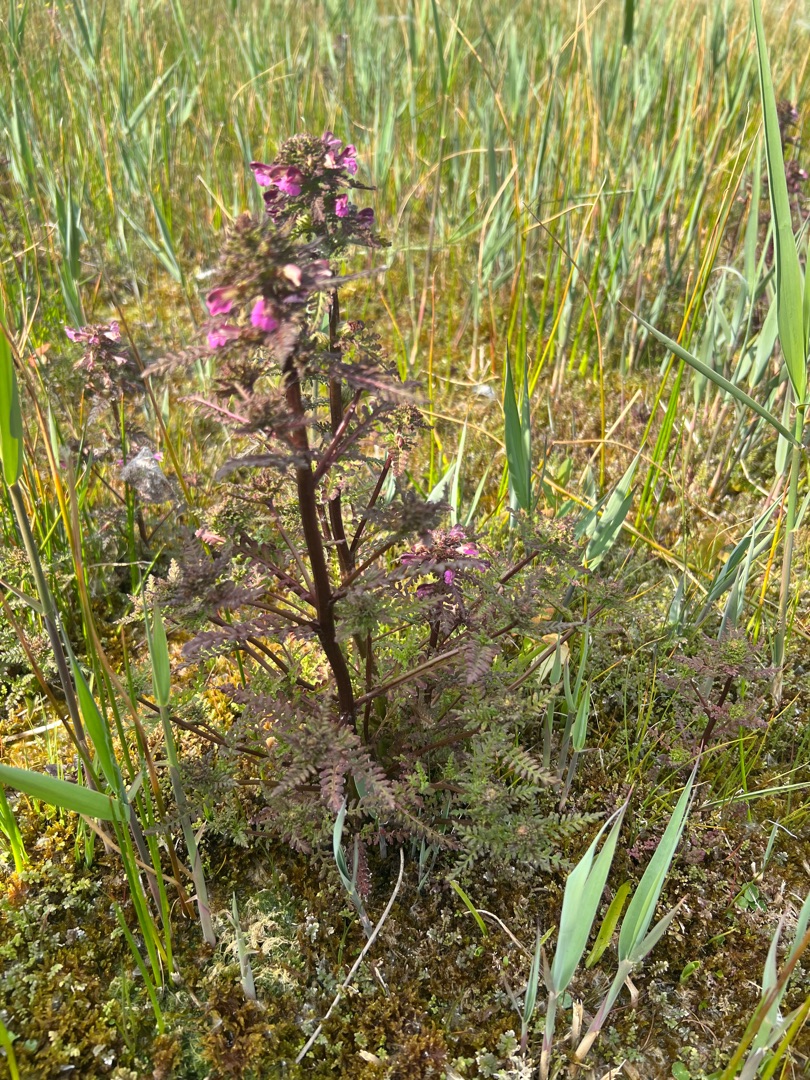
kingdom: Plantae
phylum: Tracheophyta
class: Magnoliopsida
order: Lamiales
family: Orobanchaceae
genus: Pedicularis
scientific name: Pedicularis palustris
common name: Eng-troldurt
